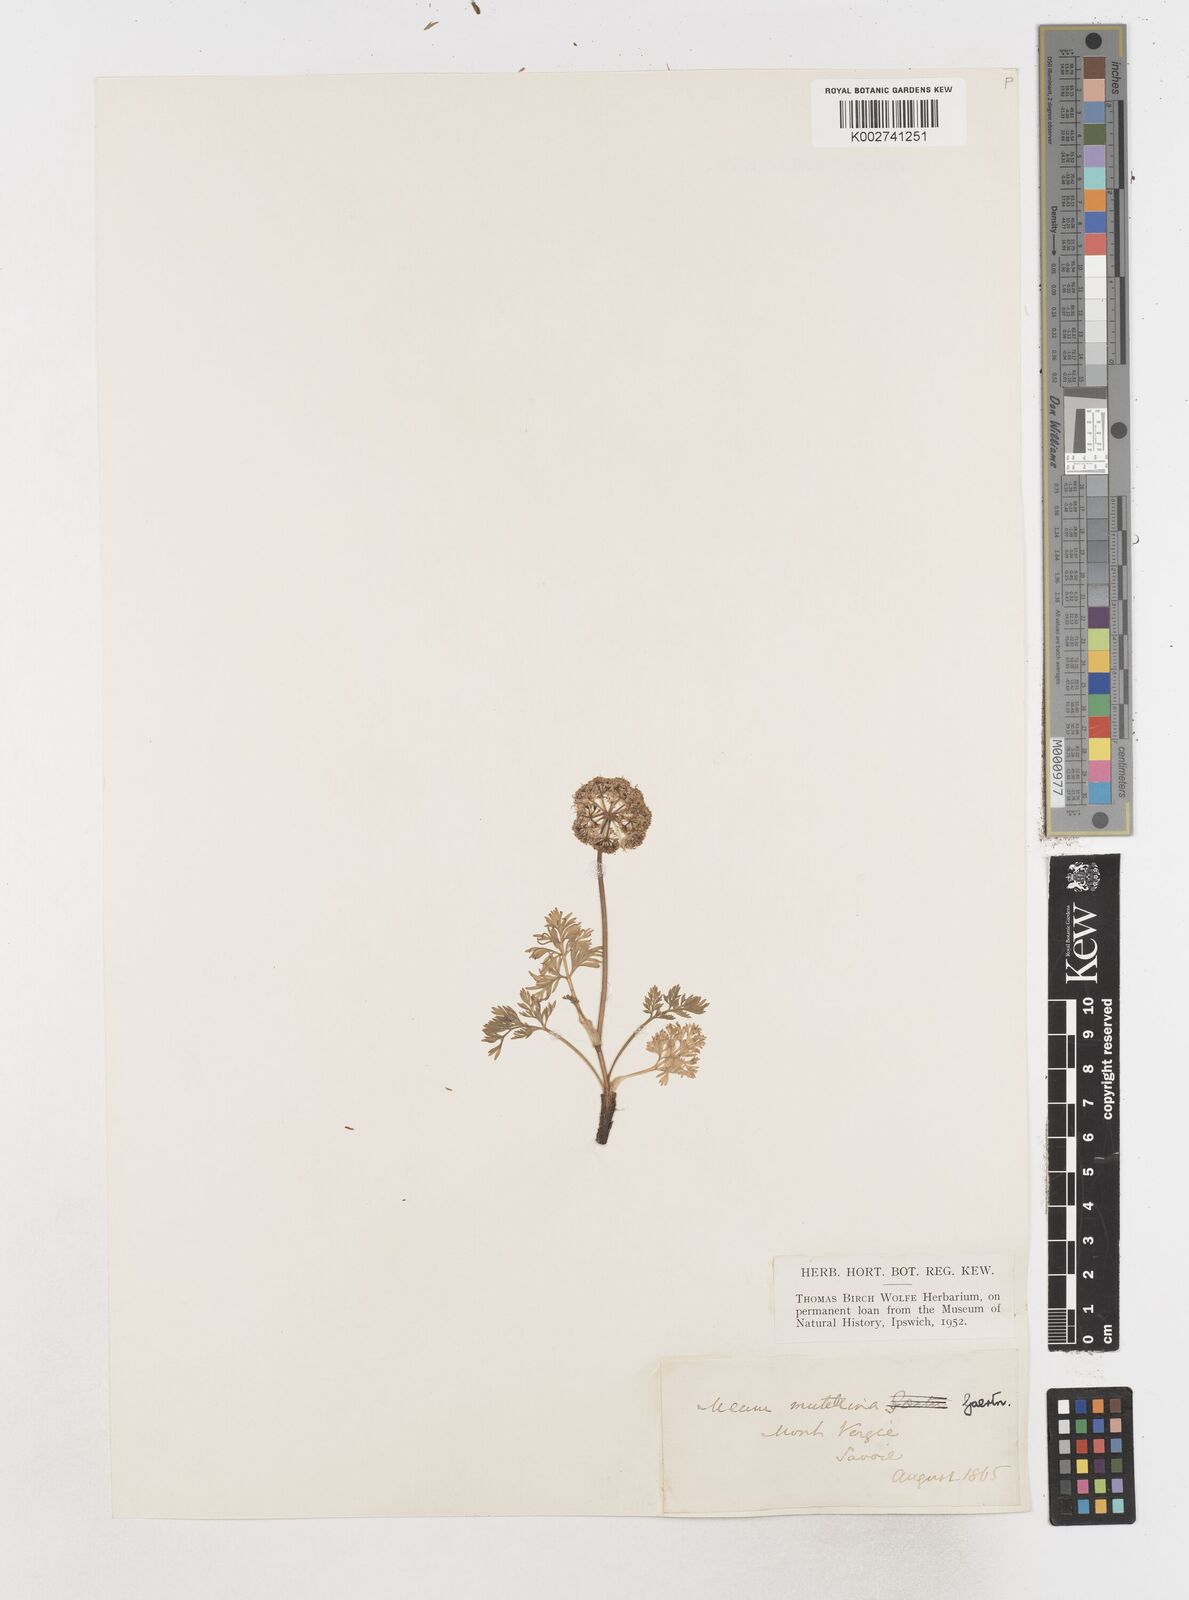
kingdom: Plantae
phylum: Tracheophyta
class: Magnoliopsida
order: Apiales
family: Apiaceae
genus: Mutellina
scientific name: Mutellina adonidifolia
